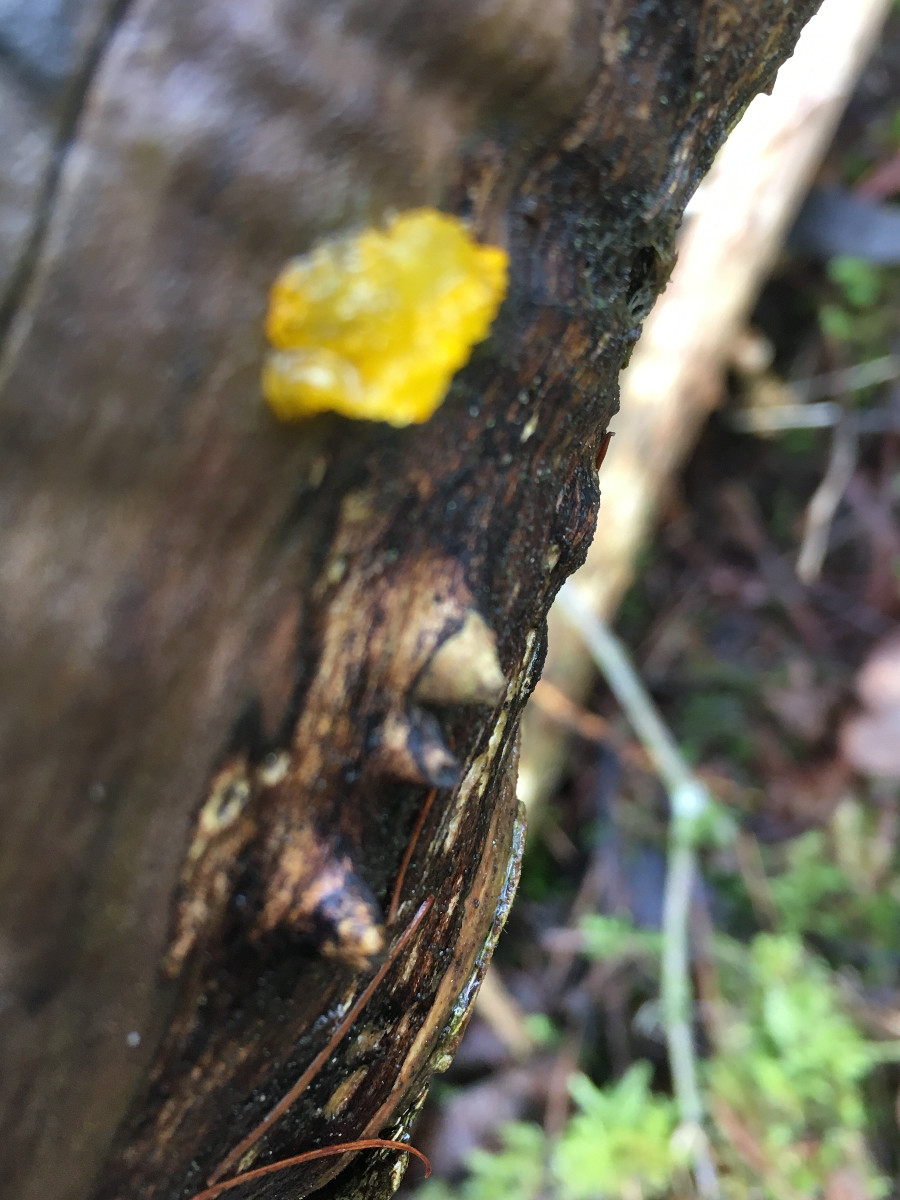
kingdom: Fungi
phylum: Basidiomycota
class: Tremellomycetes
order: Tremellales
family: Tremellaceae
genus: Tremella
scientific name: Tremella mesenterica
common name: gul bævresvamp
